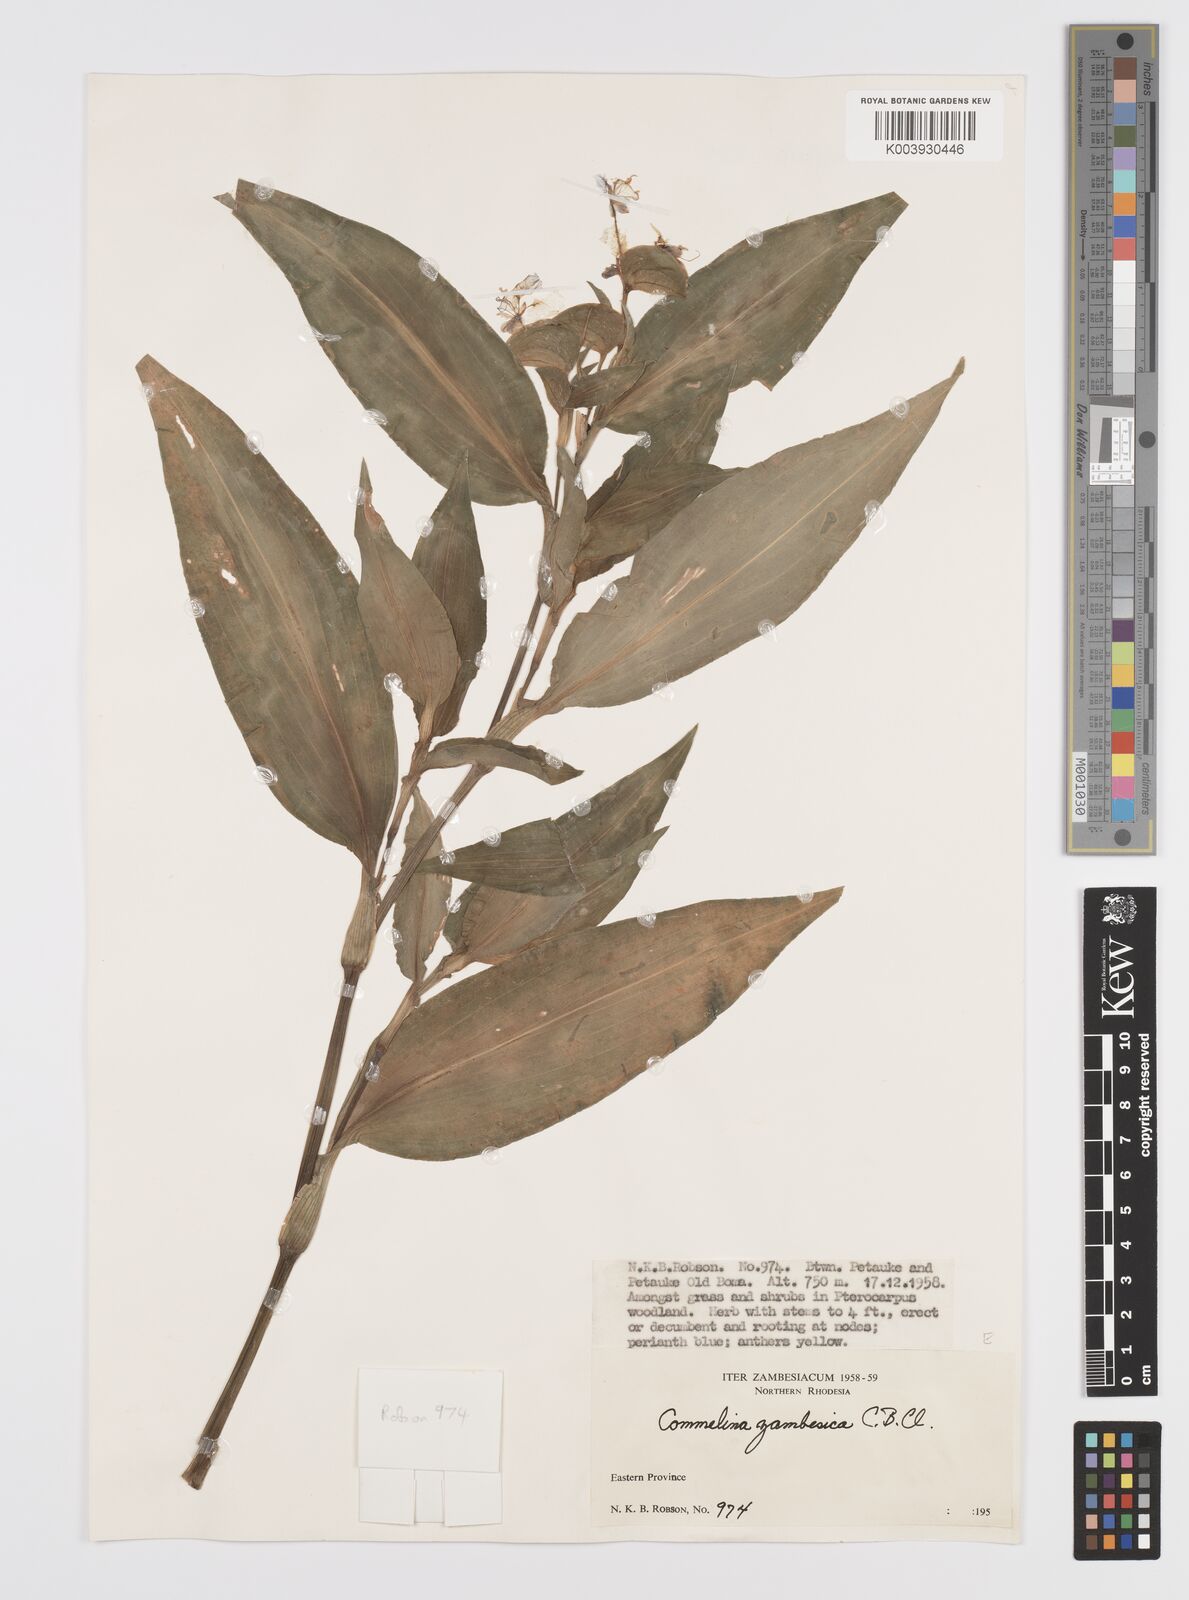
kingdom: Plantae
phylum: Tracheophyta
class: Liliopsida
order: Commelinales
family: Commelinaceae
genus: Commelina
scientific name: Commelina zambesica
